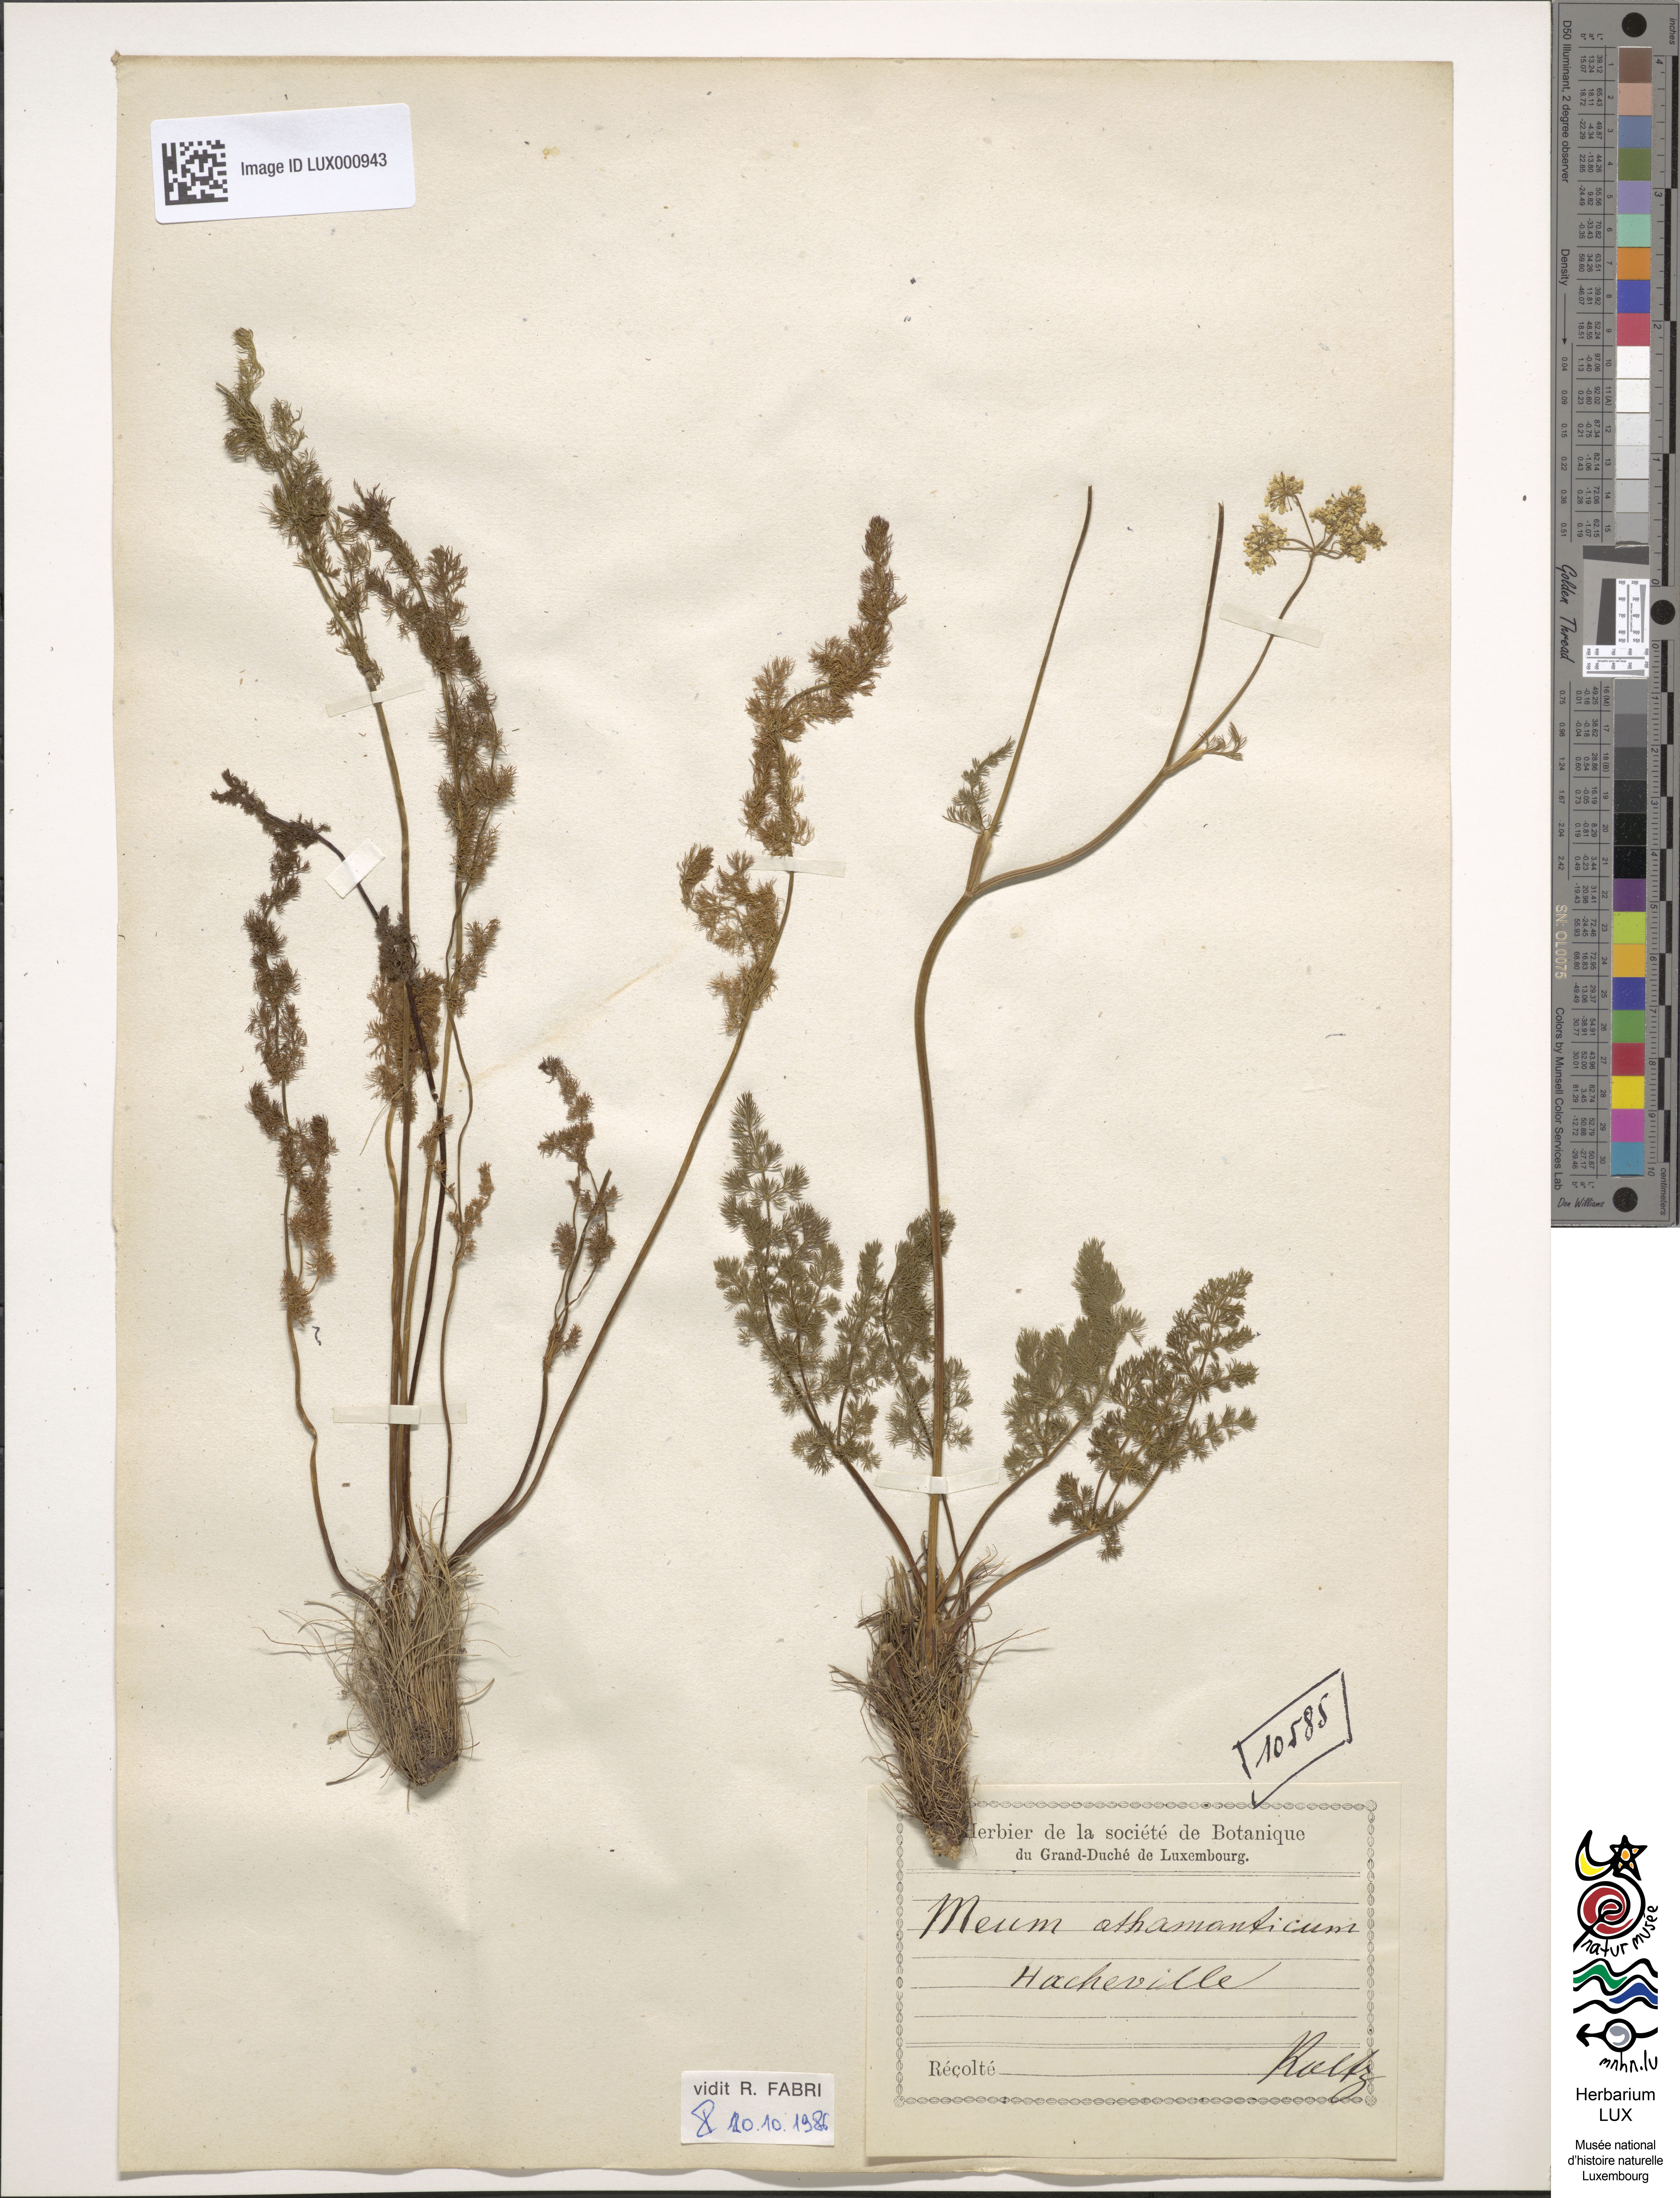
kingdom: Plantae
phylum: Tracheophyta
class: Magnoliopsida
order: Apiales
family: Apiaceae
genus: Meum
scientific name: Meum athamanticum
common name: Spignel
